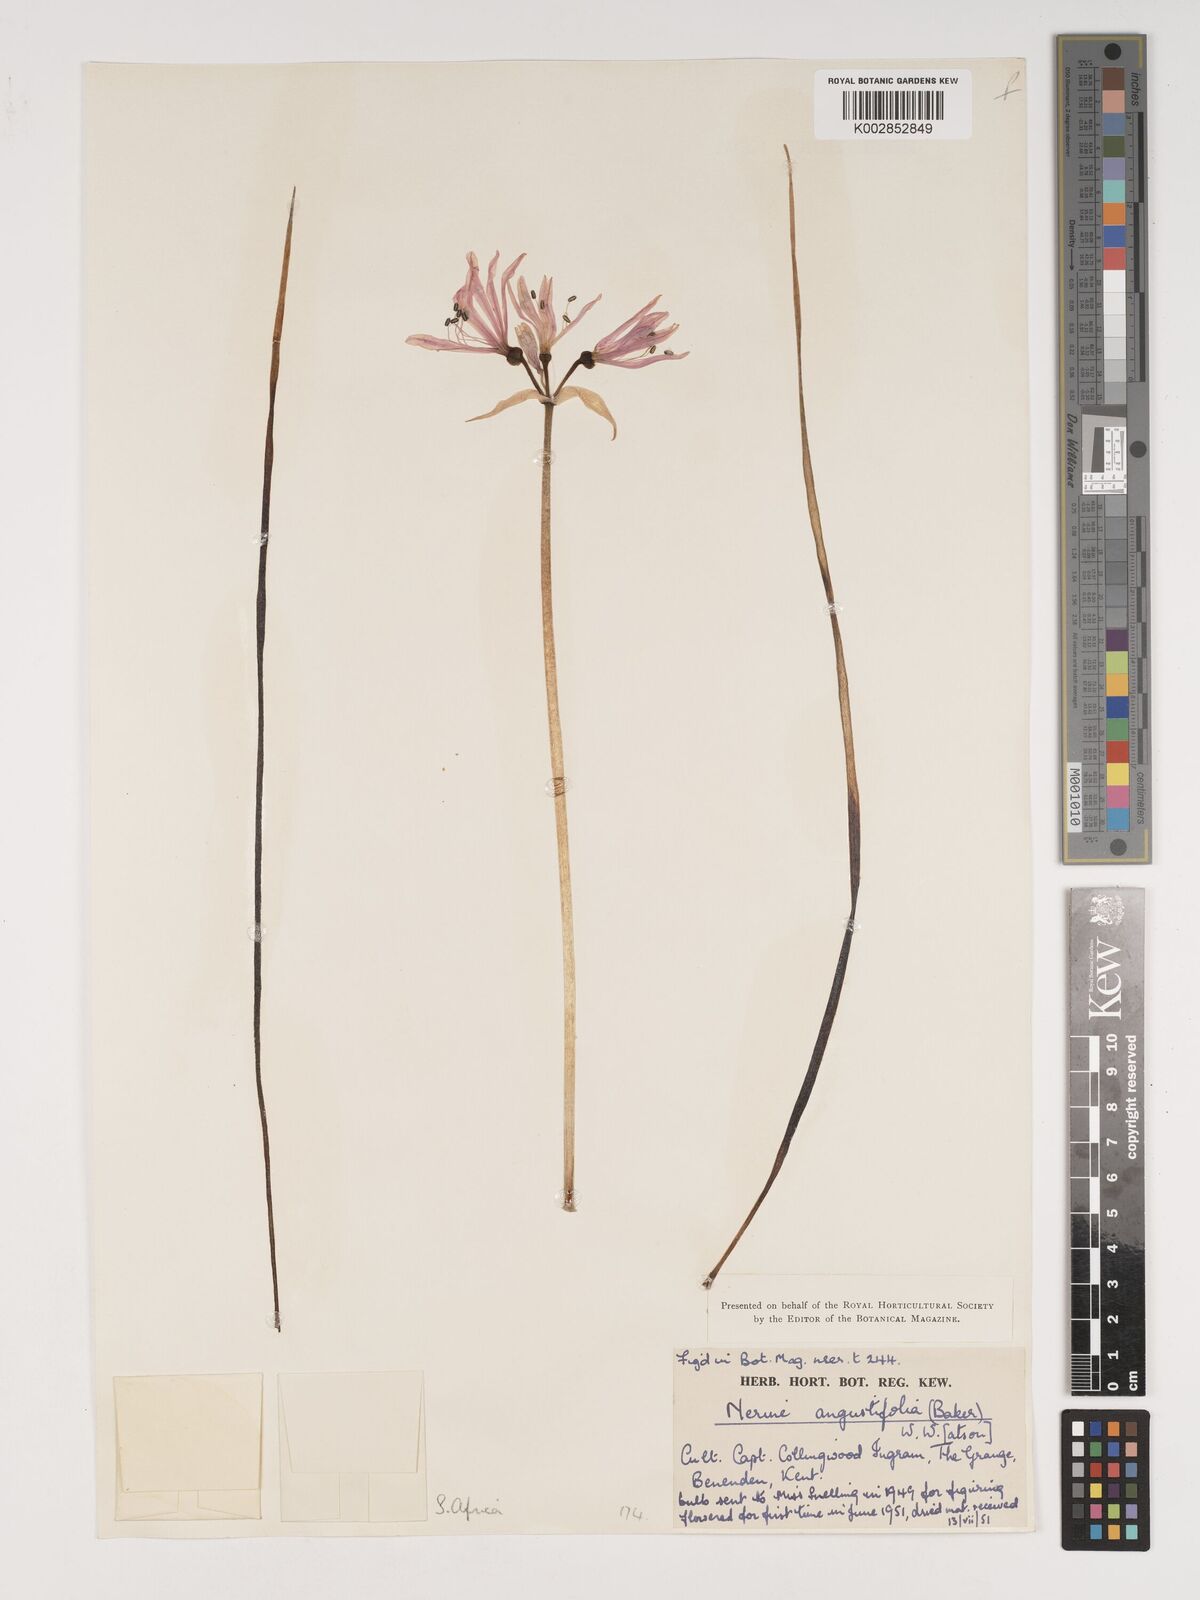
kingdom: Plantae
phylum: Tracheophyta
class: Liliopsida
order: Asparagales
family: Amaryllidaceae
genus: Nerine
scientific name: Nerine
